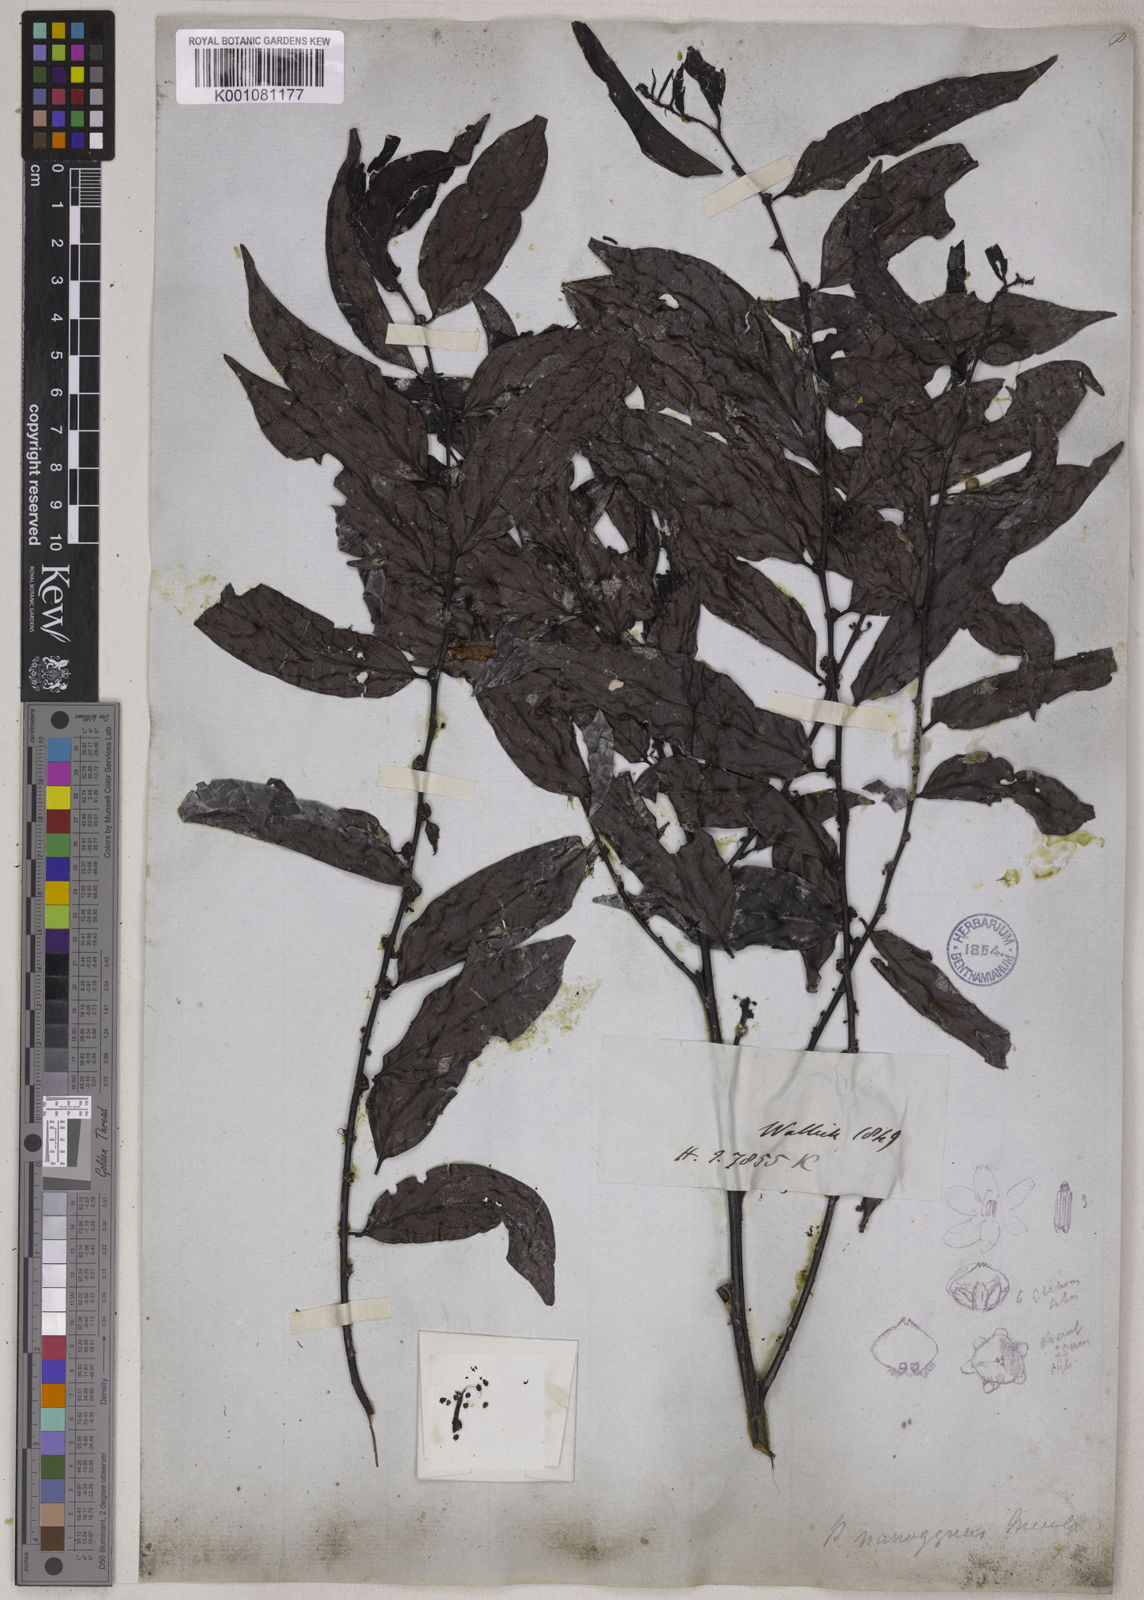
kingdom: Plantae
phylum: Tracheophyta
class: Magnoliopsida
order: Malpighiales
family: Phyllanthaceae
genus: Glochidion
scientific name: Glochidion glomerulatum
